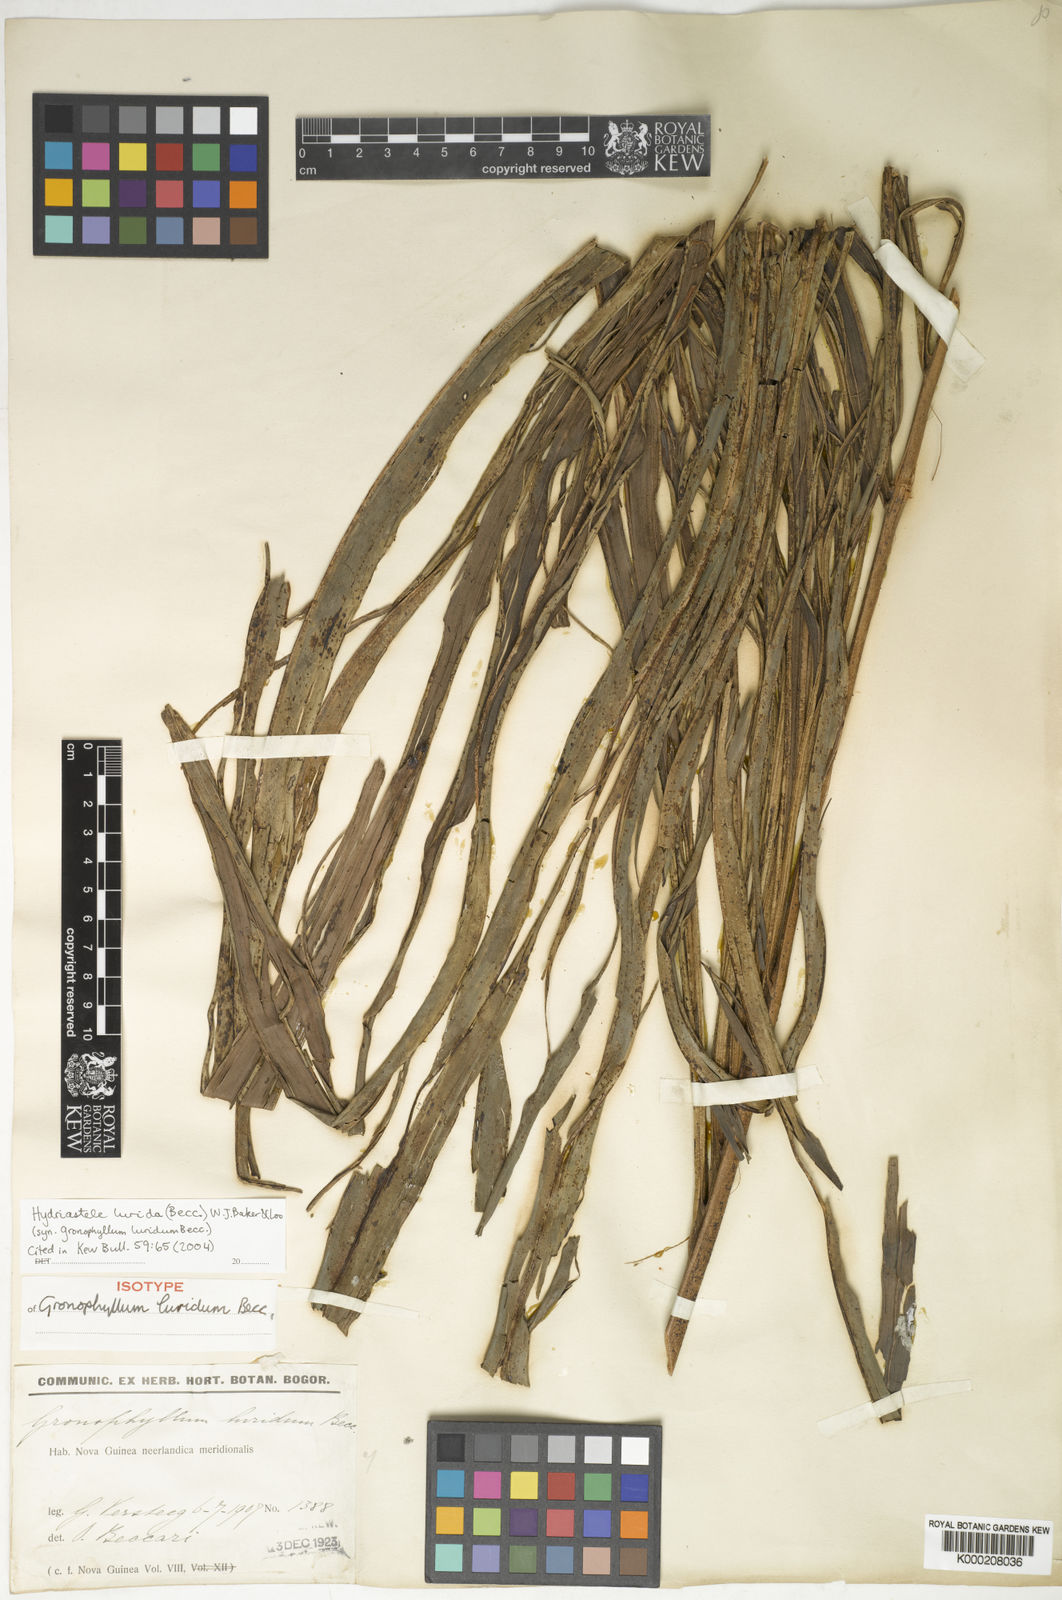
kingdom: Plantae
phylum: Tracheophyta
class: Liliopsida
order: Arecales
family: Arecaceae
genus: Hydriastele
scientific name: Hydriastele lurida
